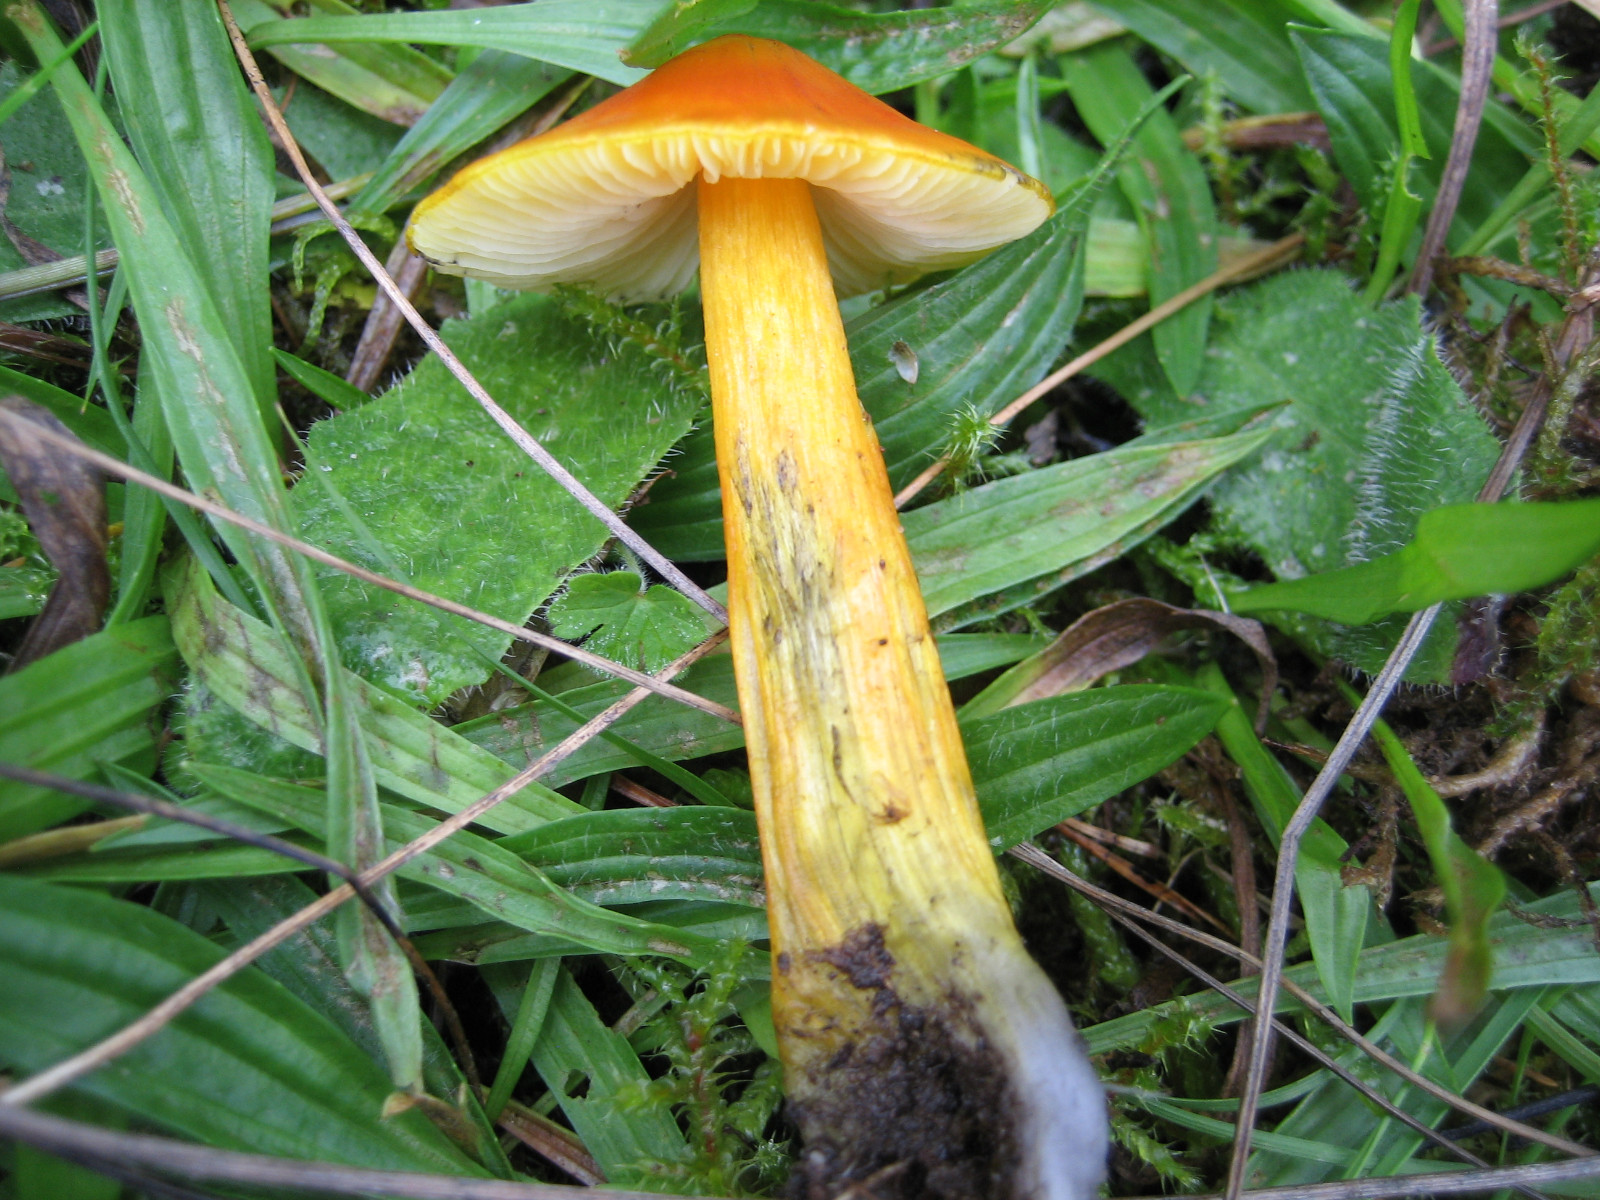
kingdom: Fungi
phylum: Basidiomycota
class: Agaricomycetes
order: Agaricales
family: Hygrophoraceae
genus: Hygrocybe
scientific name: Hygrocybe conica
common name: kegle-vokshat
